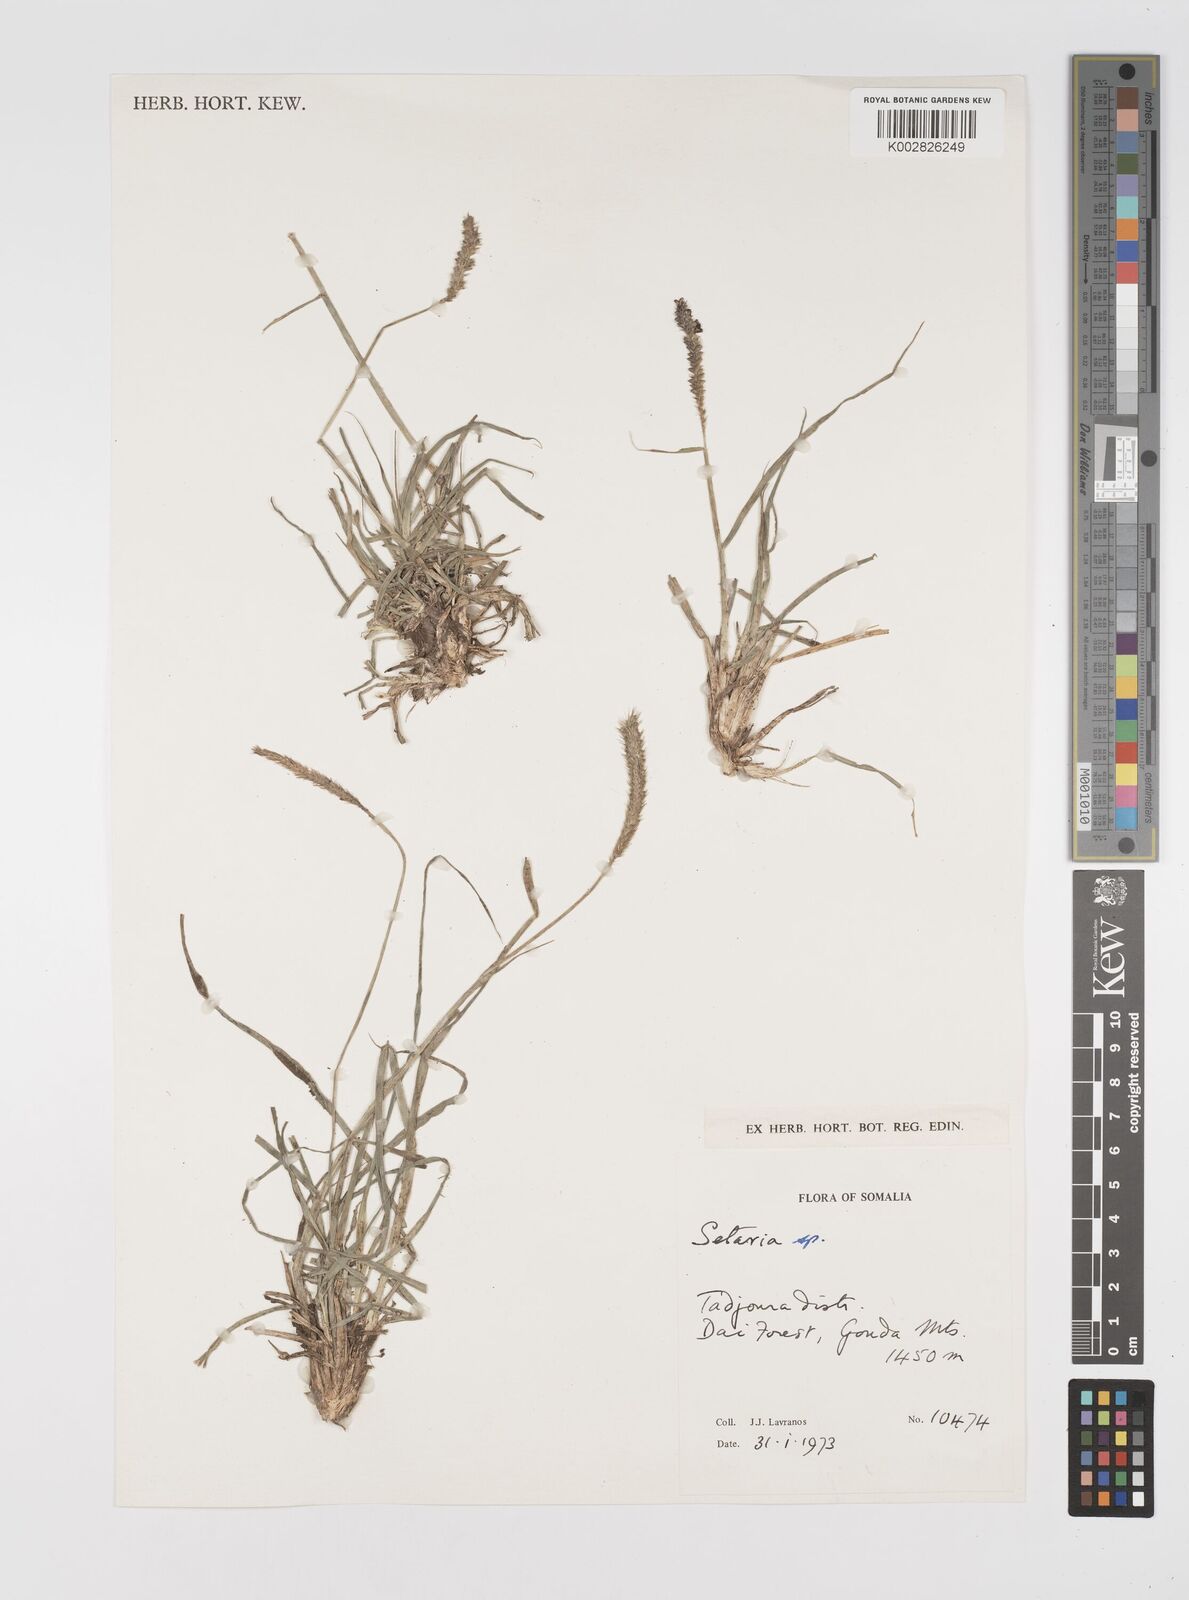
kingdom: Plantae
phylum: Tracheophyta
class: Liliopsida
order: Poales
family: Poaceae
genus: Setaria
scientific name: Setaria incrassata
